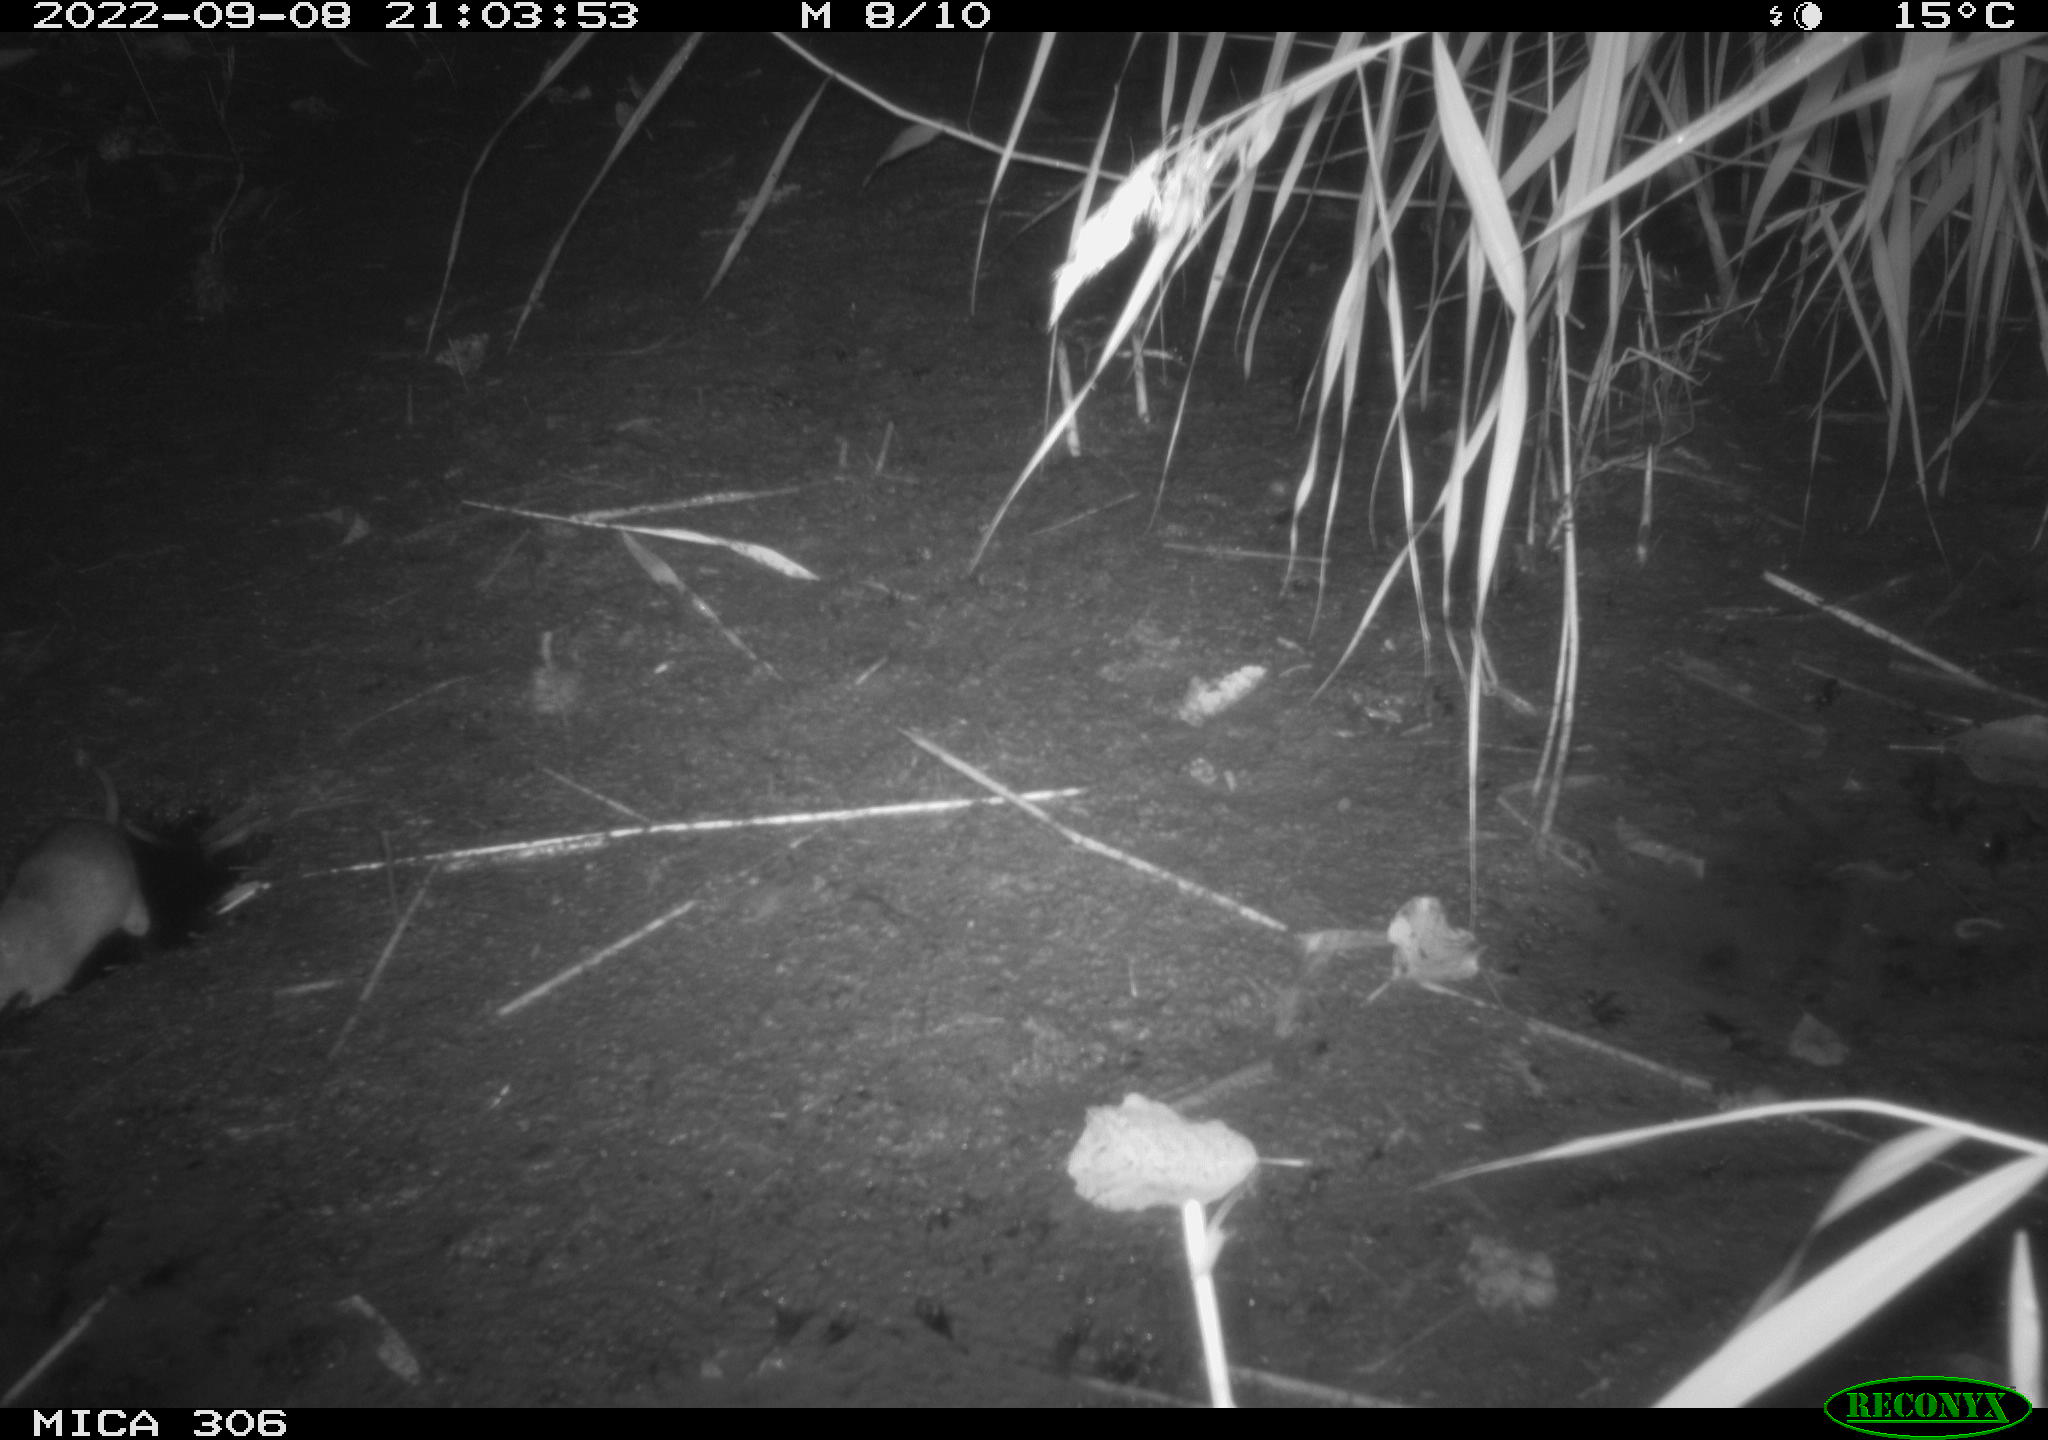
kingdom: Animalia
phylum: Chordata
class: Mammalia
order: Rodentia
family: Muridae
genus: Rattus
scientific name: Rattus norvegicus
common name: Brown rat
